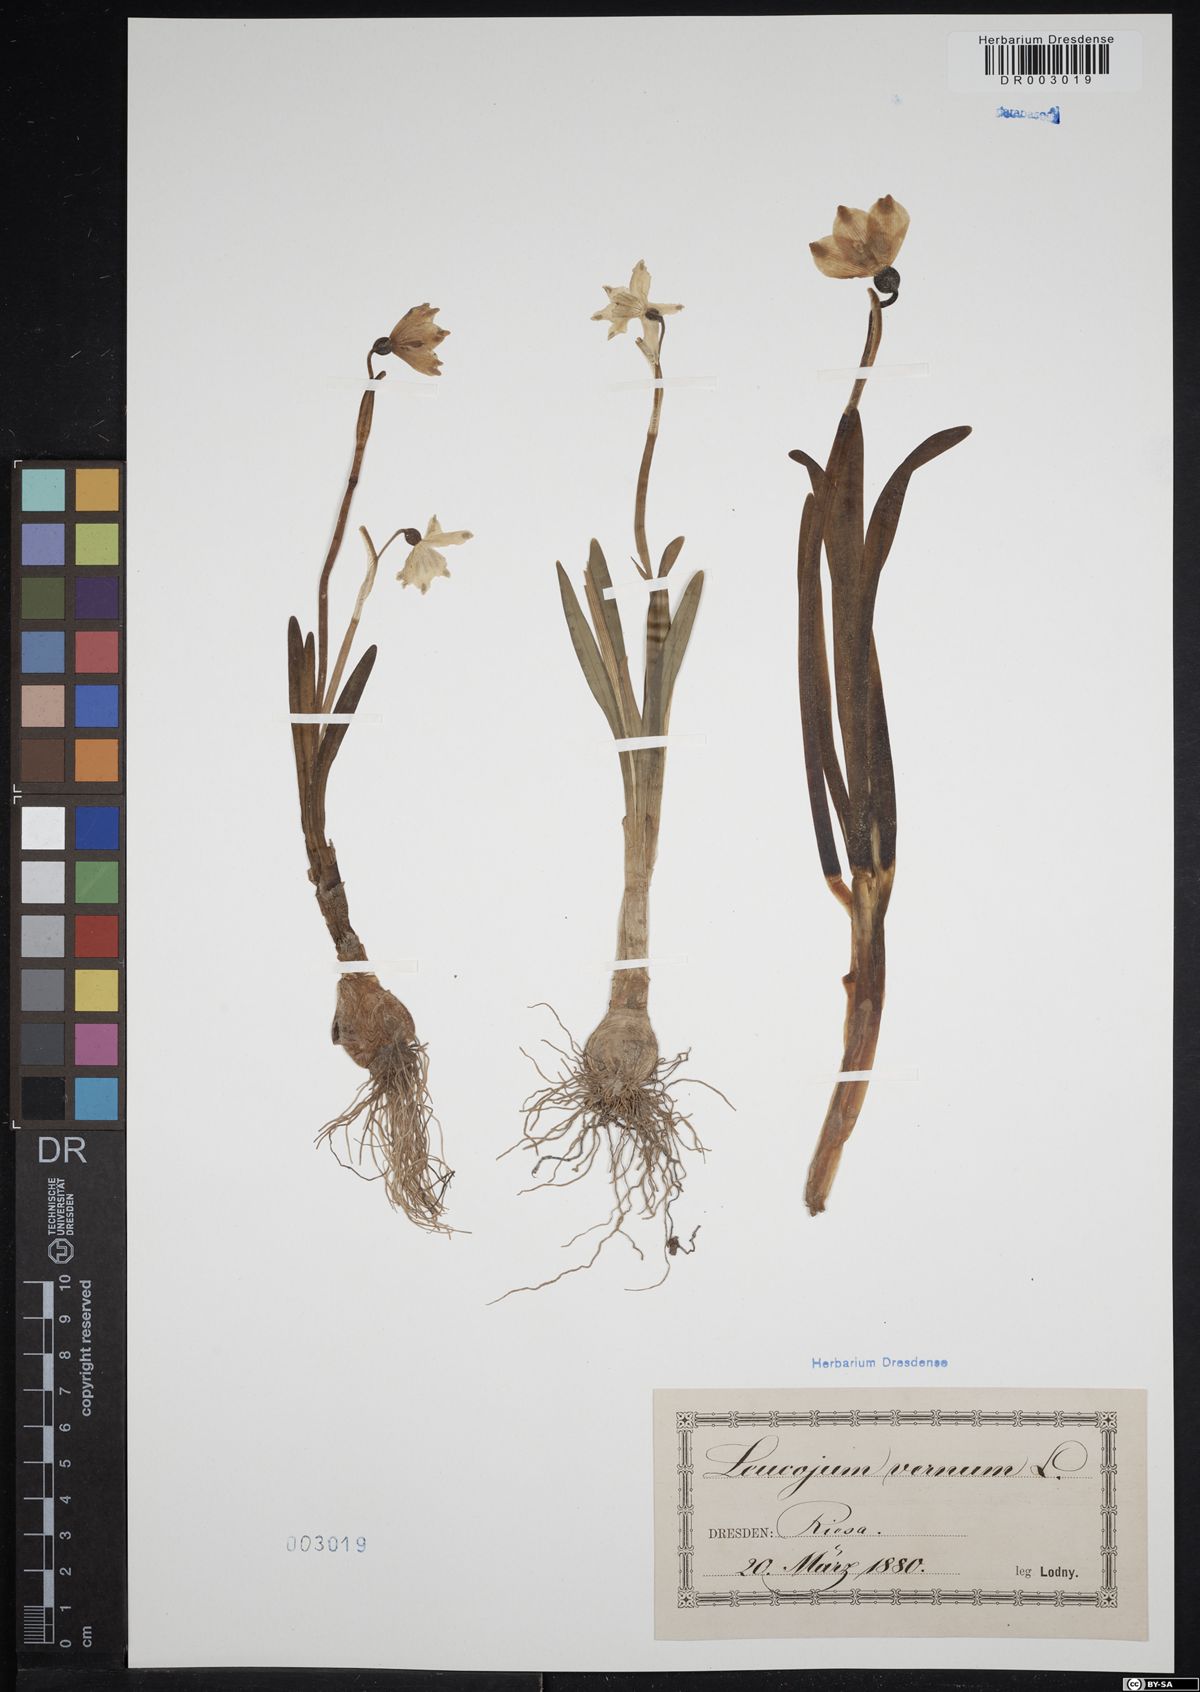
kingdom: Plantae
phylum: Tracheophyta
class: Liliopsida
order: Asparagales
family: Amaryllidaceae
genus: Leucojum
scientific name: Leucojum vernum
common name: Spring snowflake
